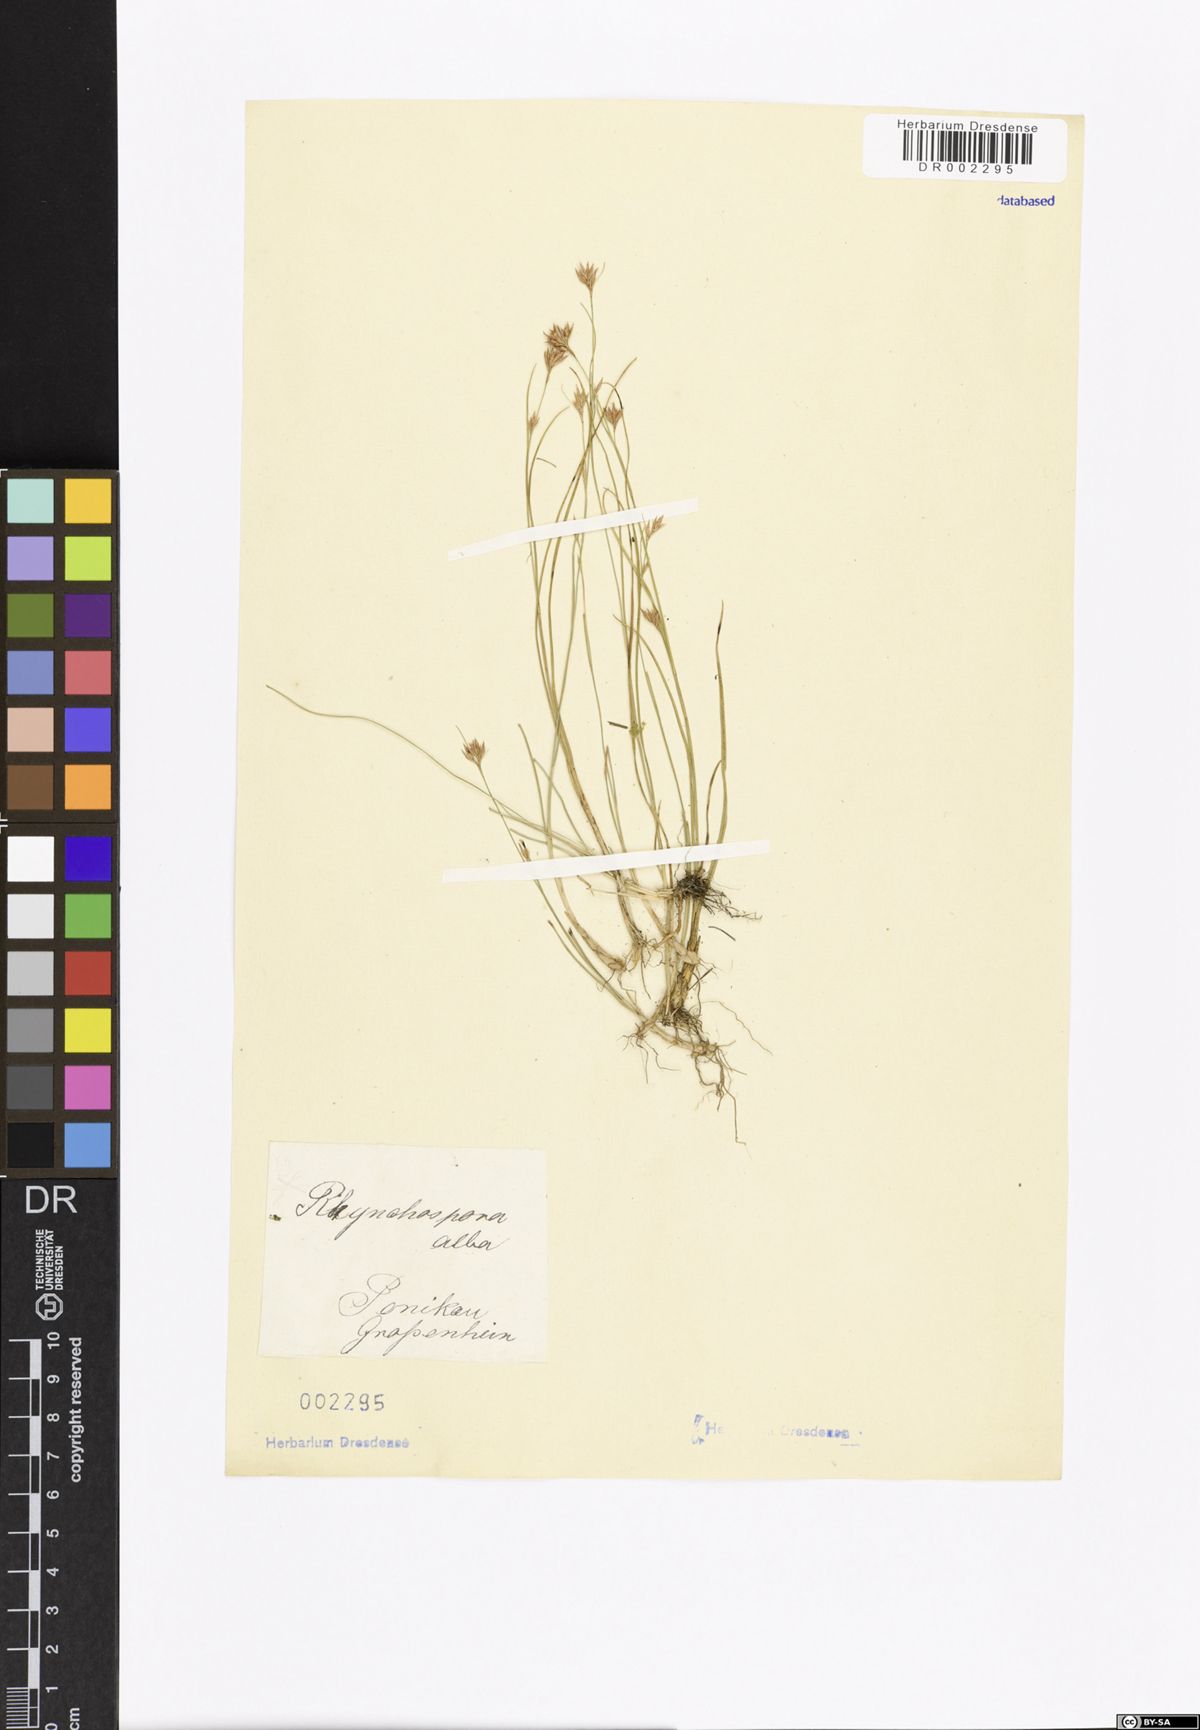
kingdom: Plantae
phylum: Tracheophyta
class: Liliopsida
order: Poales
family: Cyperaceae
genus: Rhynchospora
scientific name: Rhynchospora alba
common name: White beak-sedge
